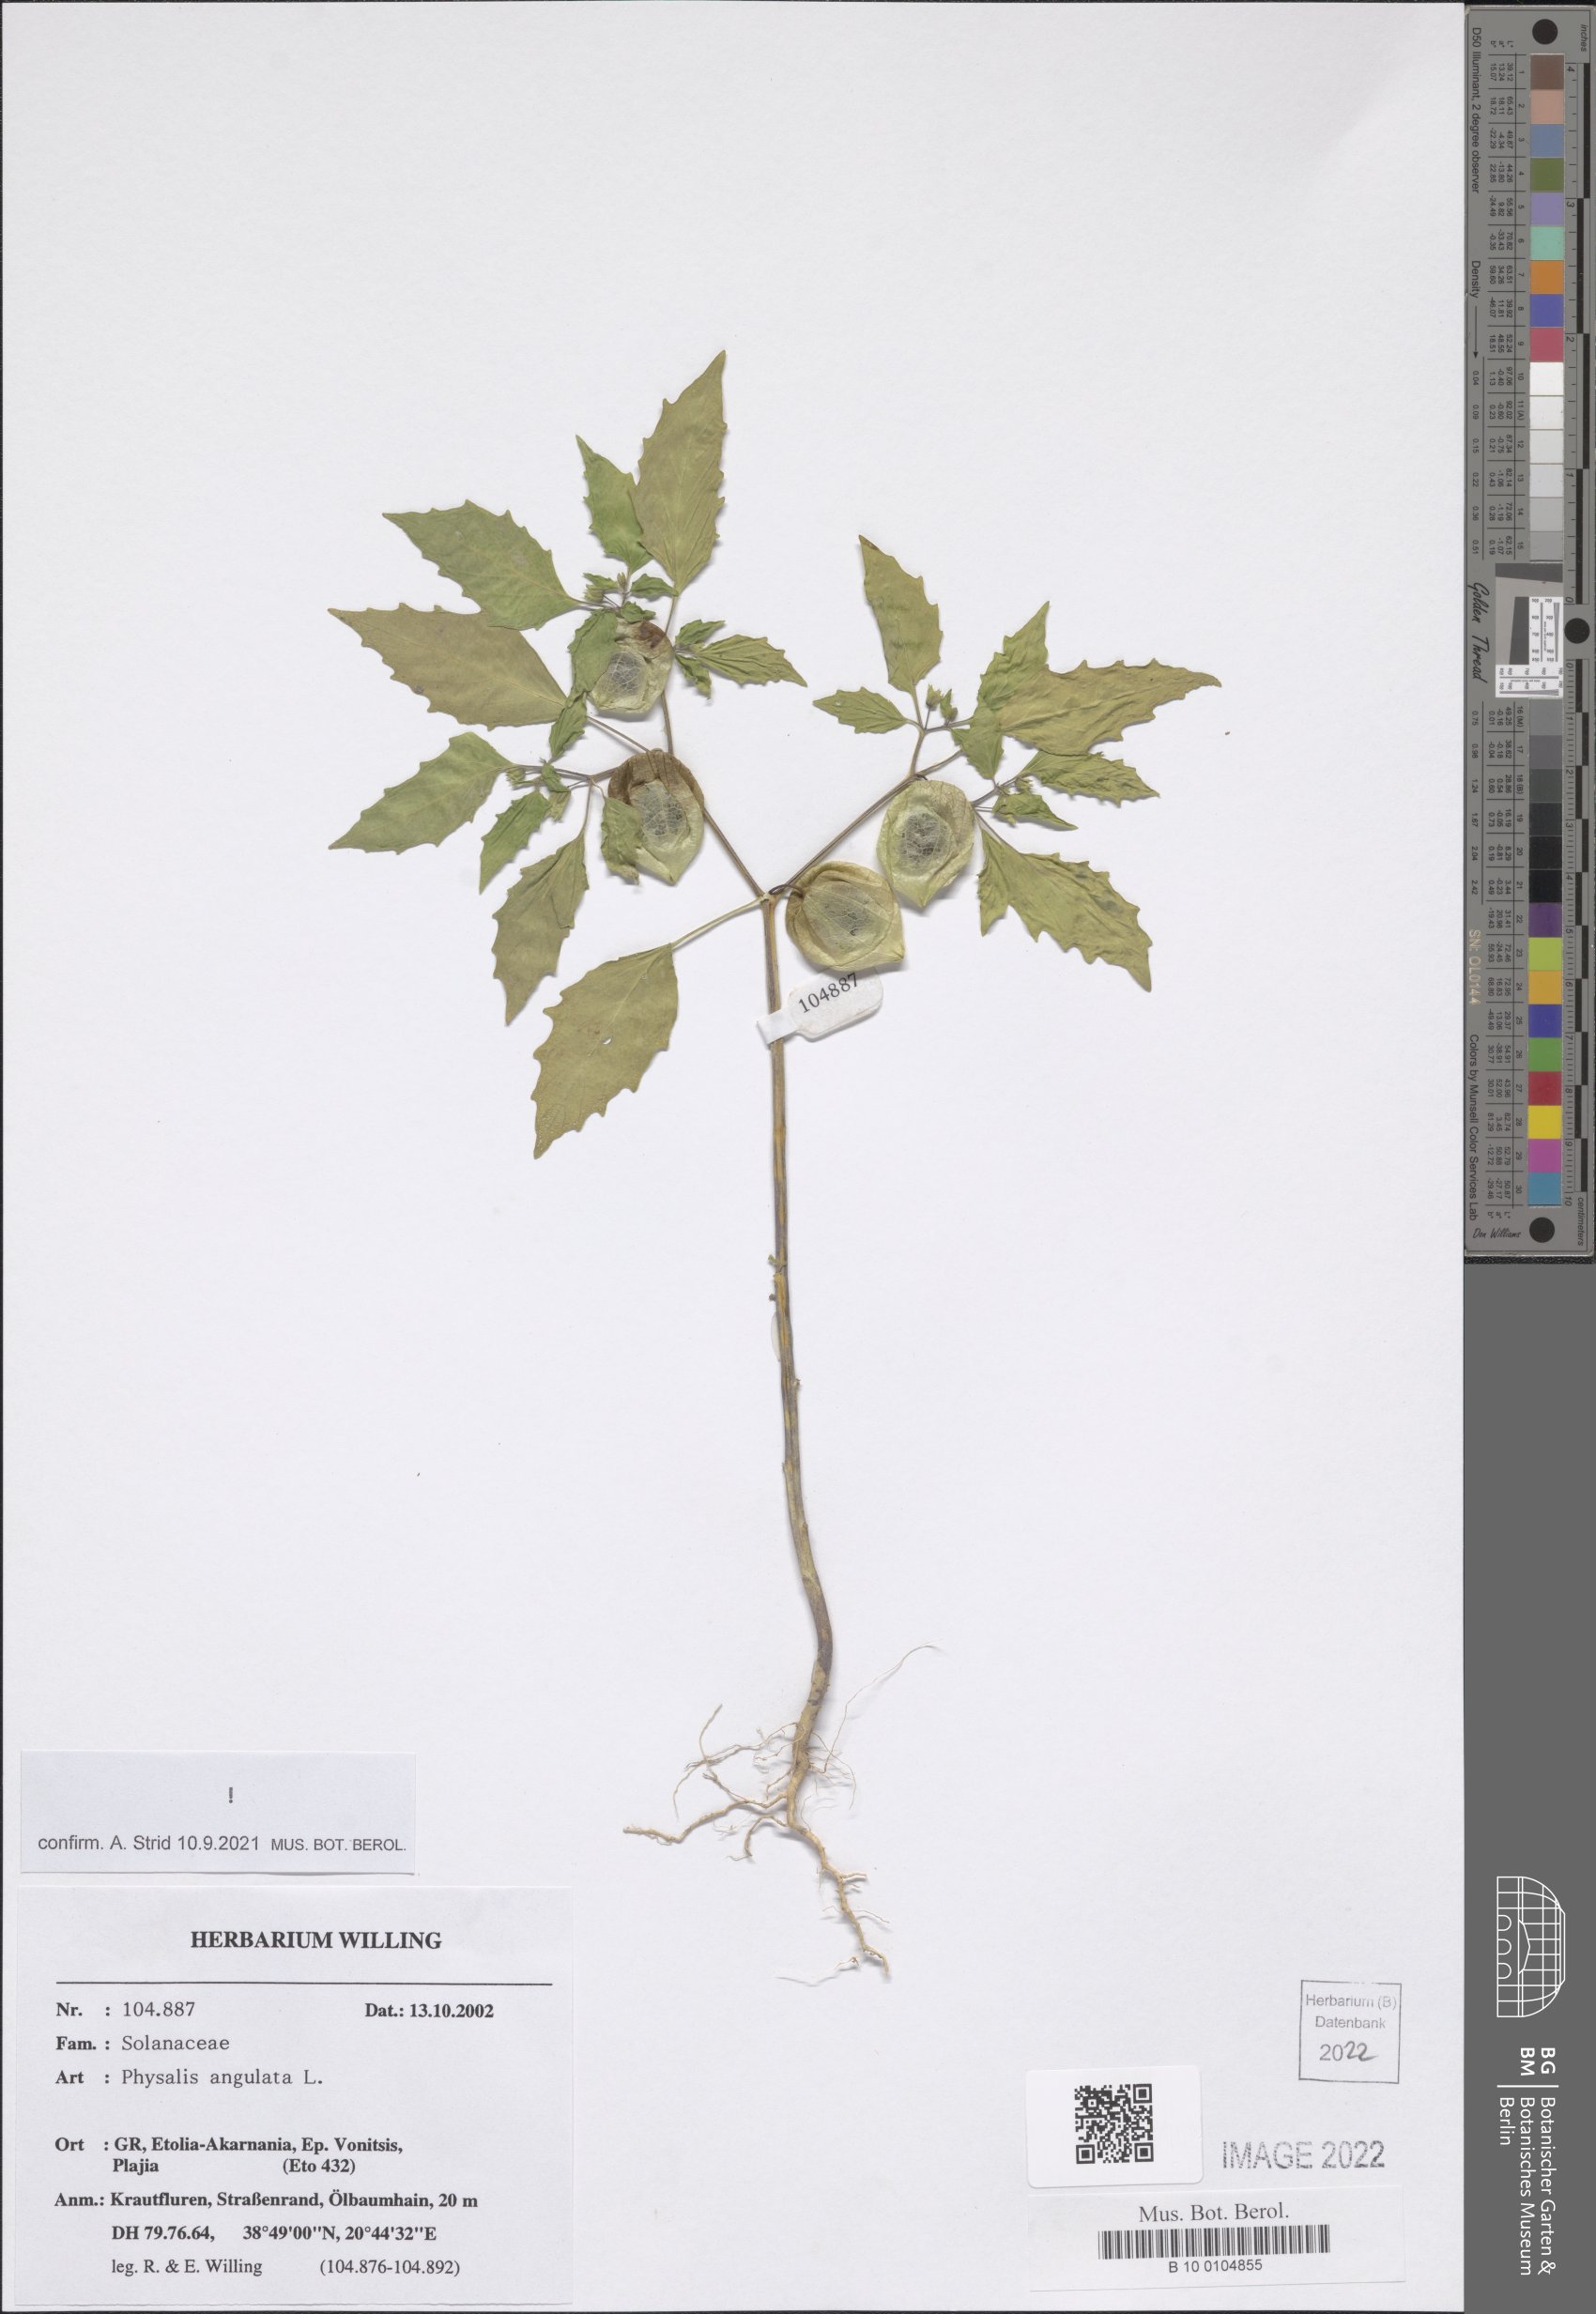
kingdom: Plantae
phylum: Tracheophyta
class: Magnoliopsida
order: Solanales
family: Solanaceae
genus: Physalis
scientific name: Physalis angulata
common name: Angular winter-cherry
